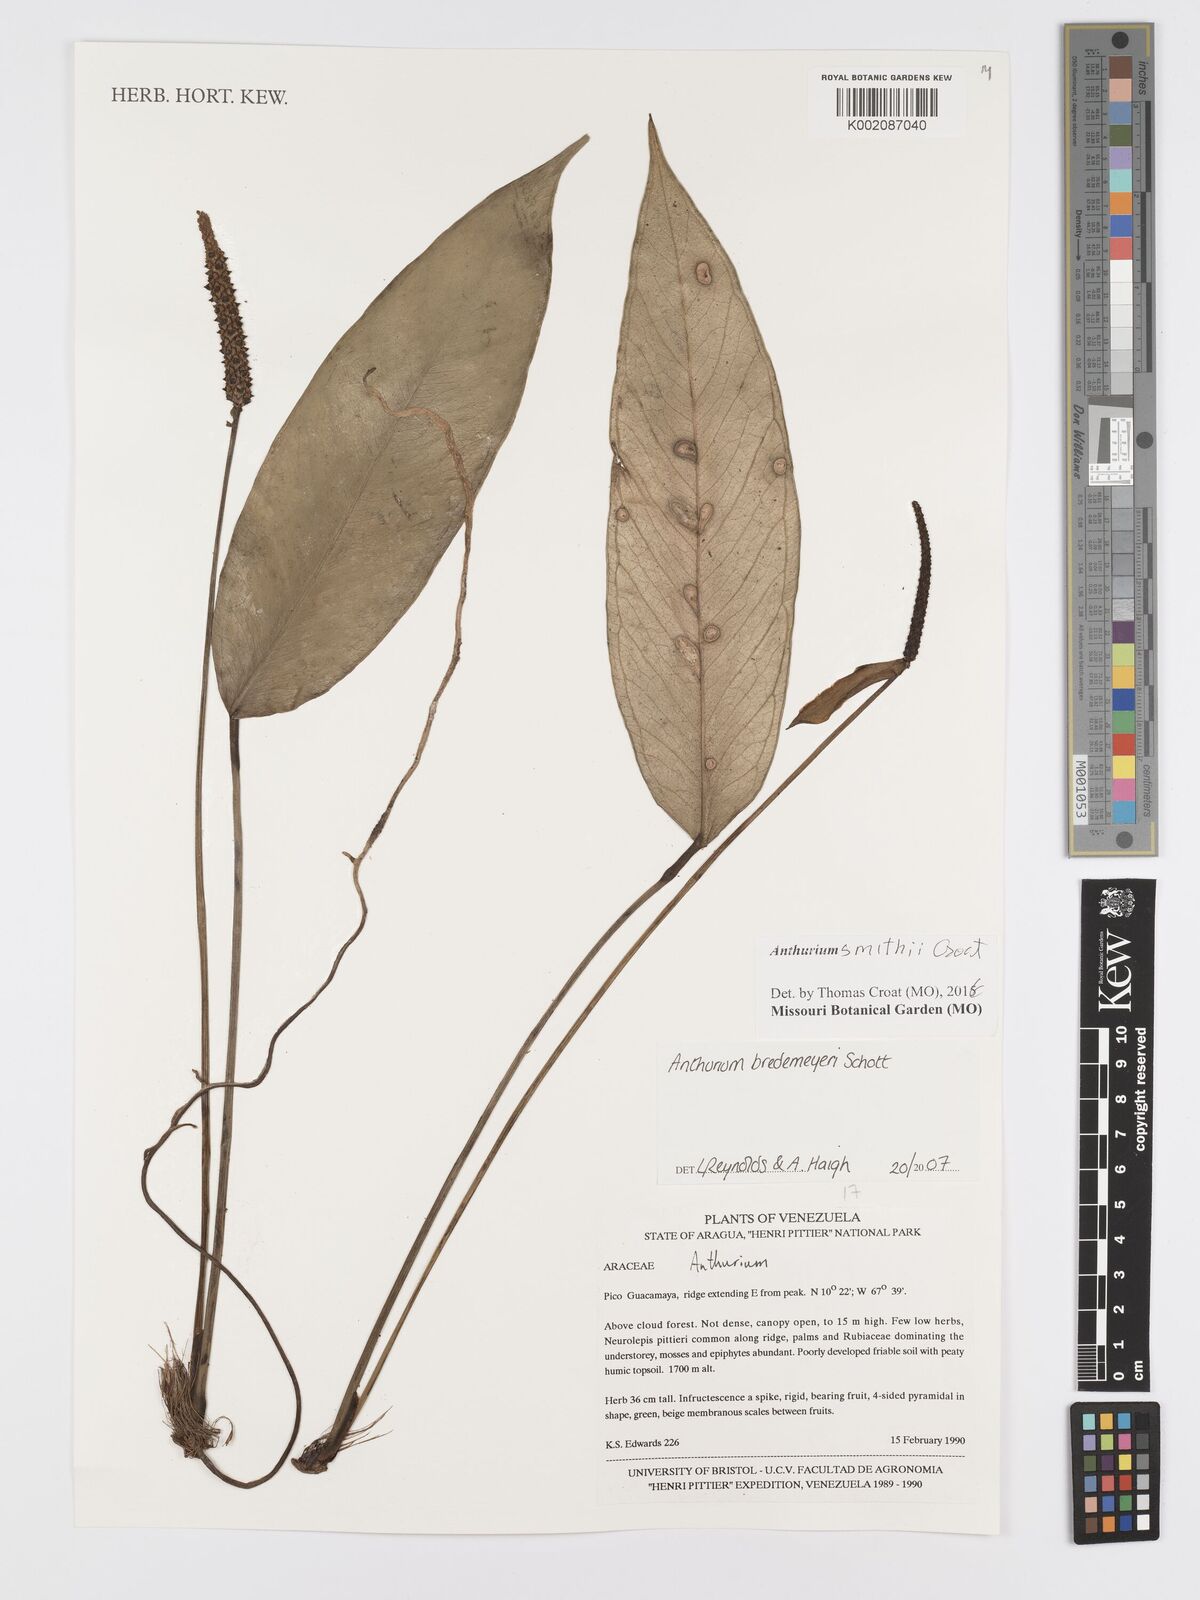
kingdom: Plantae
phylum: Tracheophyta
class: Liliopsida
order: Alismatales
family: Araceae
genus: Anthurium
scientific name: Anthurium smithii
